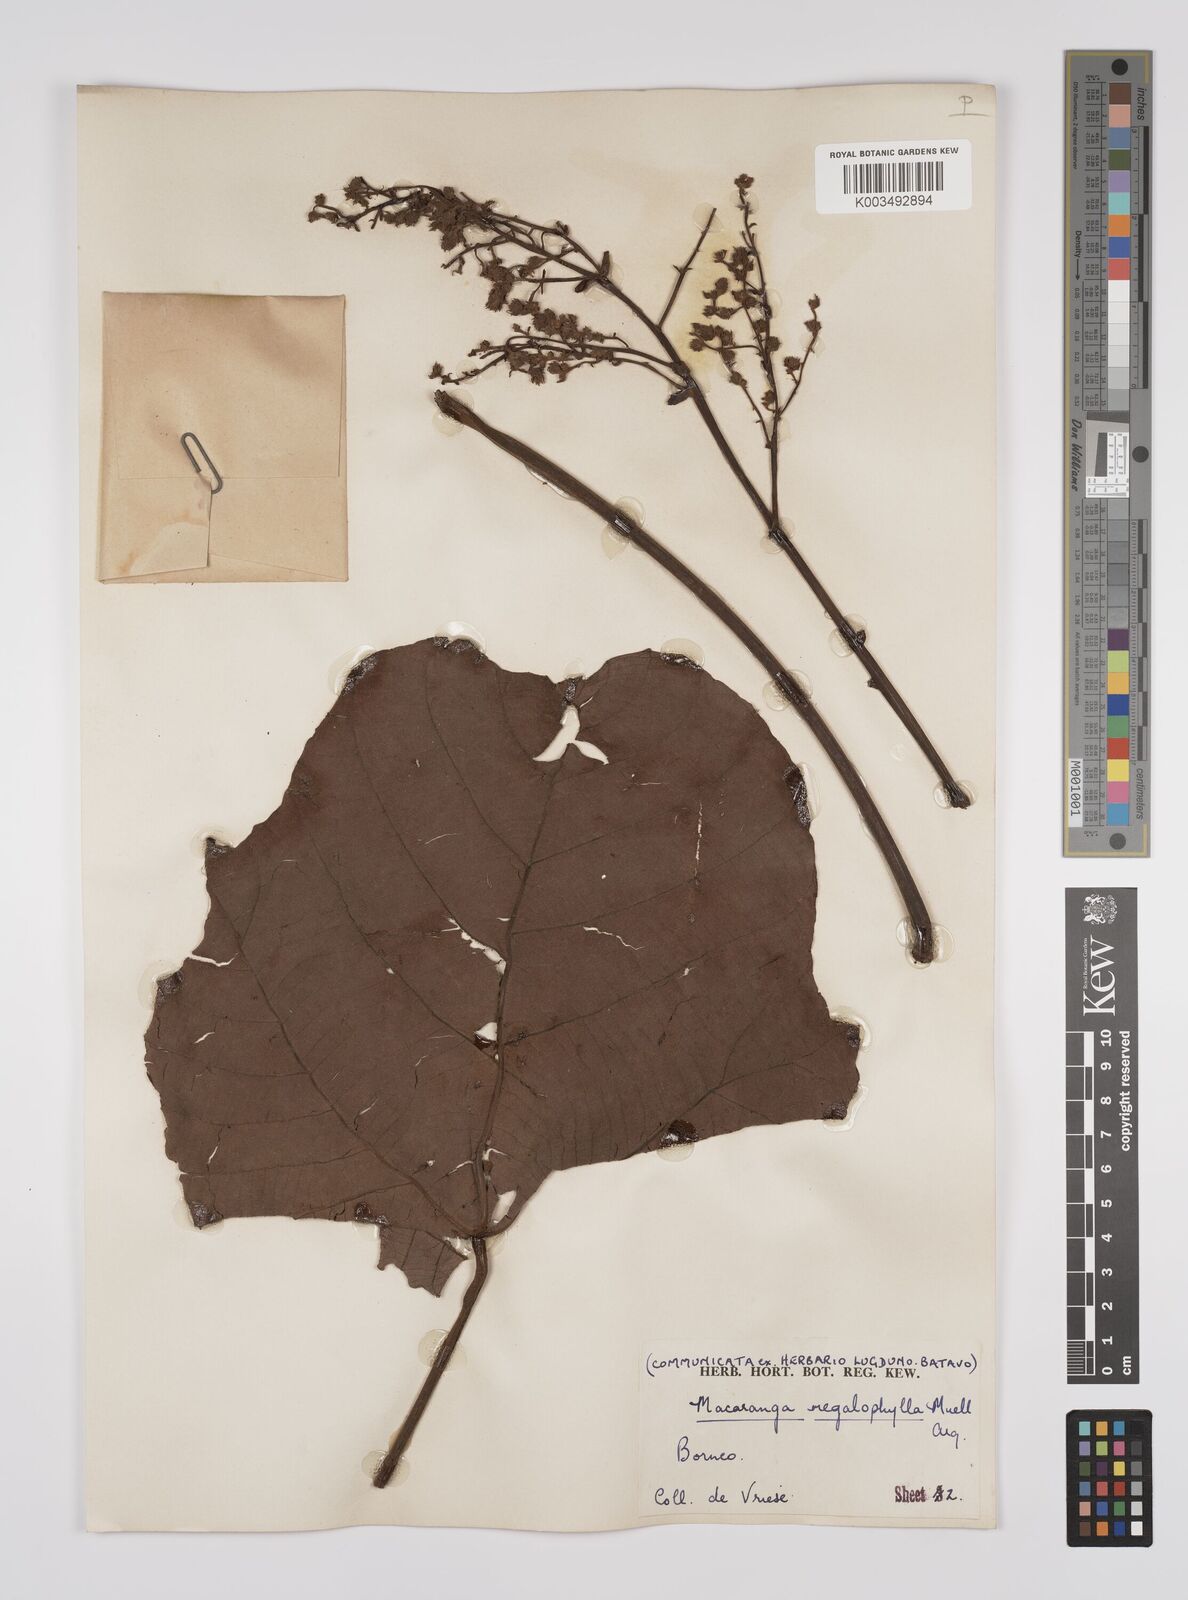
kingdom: Plantae
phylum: Tracheophyta
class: Magnoliopsida
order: Malpighiales
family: Euphorbiaceae
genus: Macaranga
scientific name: Macaranga gigantea
